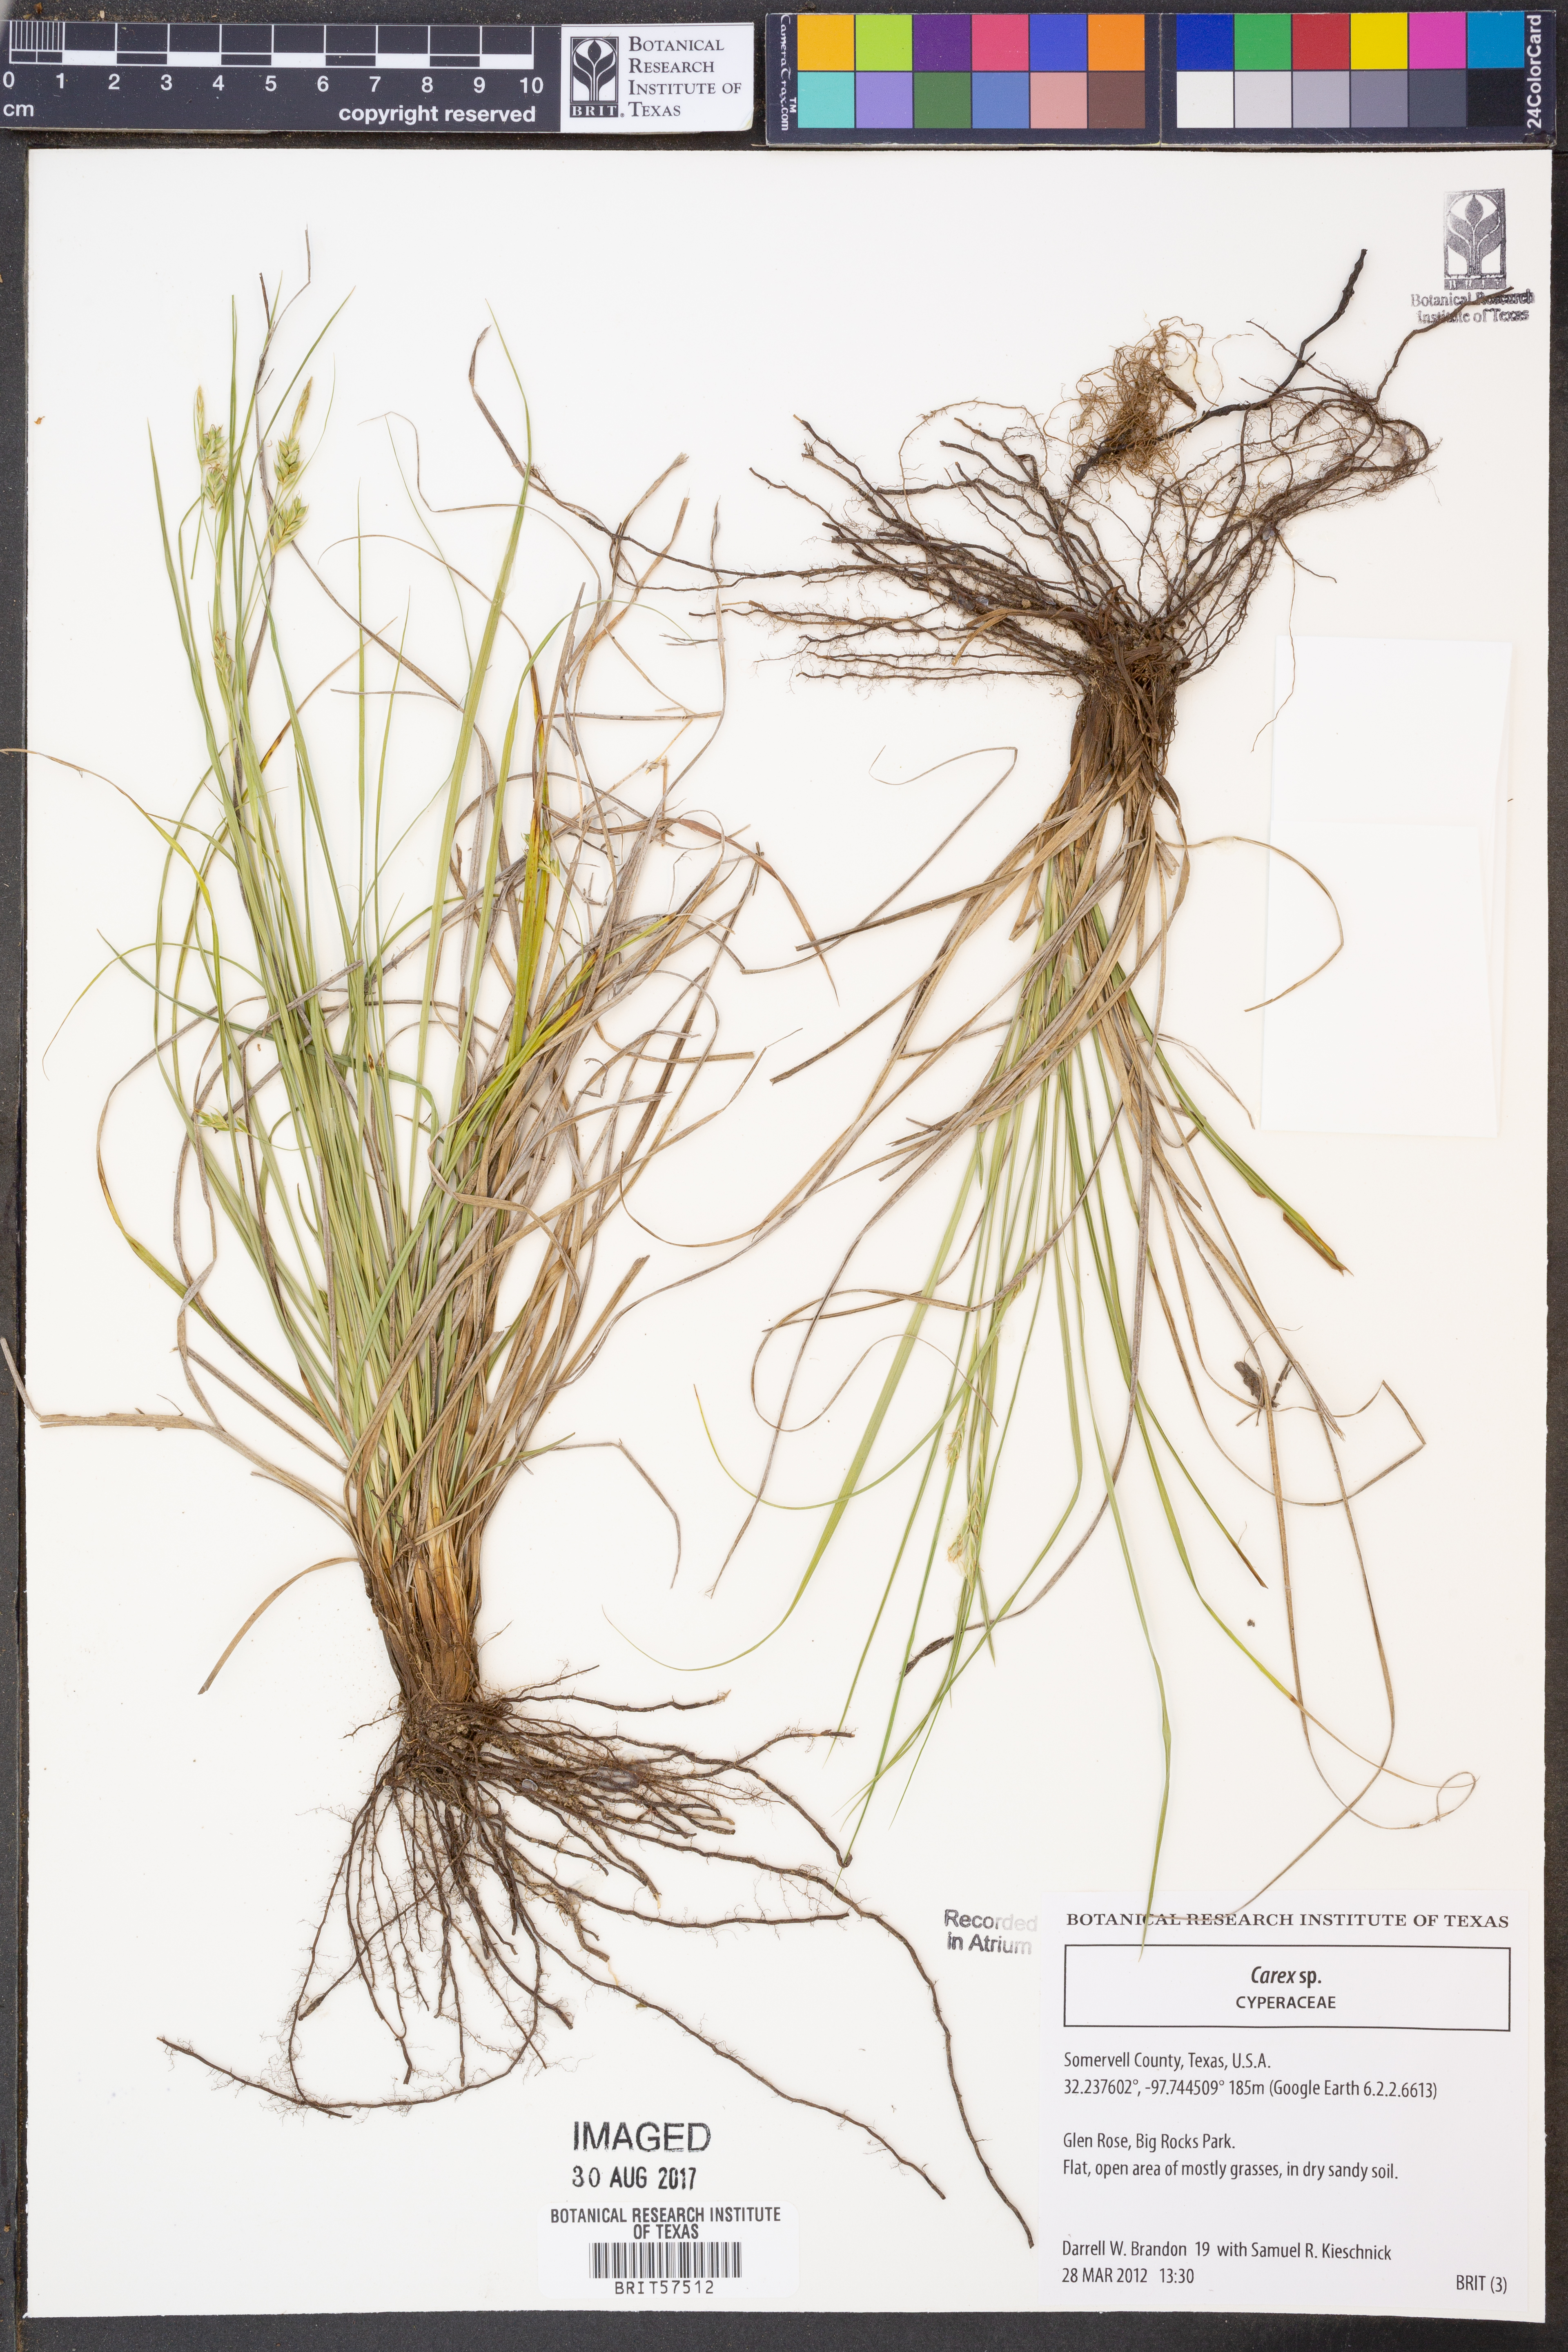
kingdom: Plantae
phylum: Tracheophyta
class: Liliopsida
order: Poales
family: Cyperaceae
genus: Carex
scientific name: Carex
